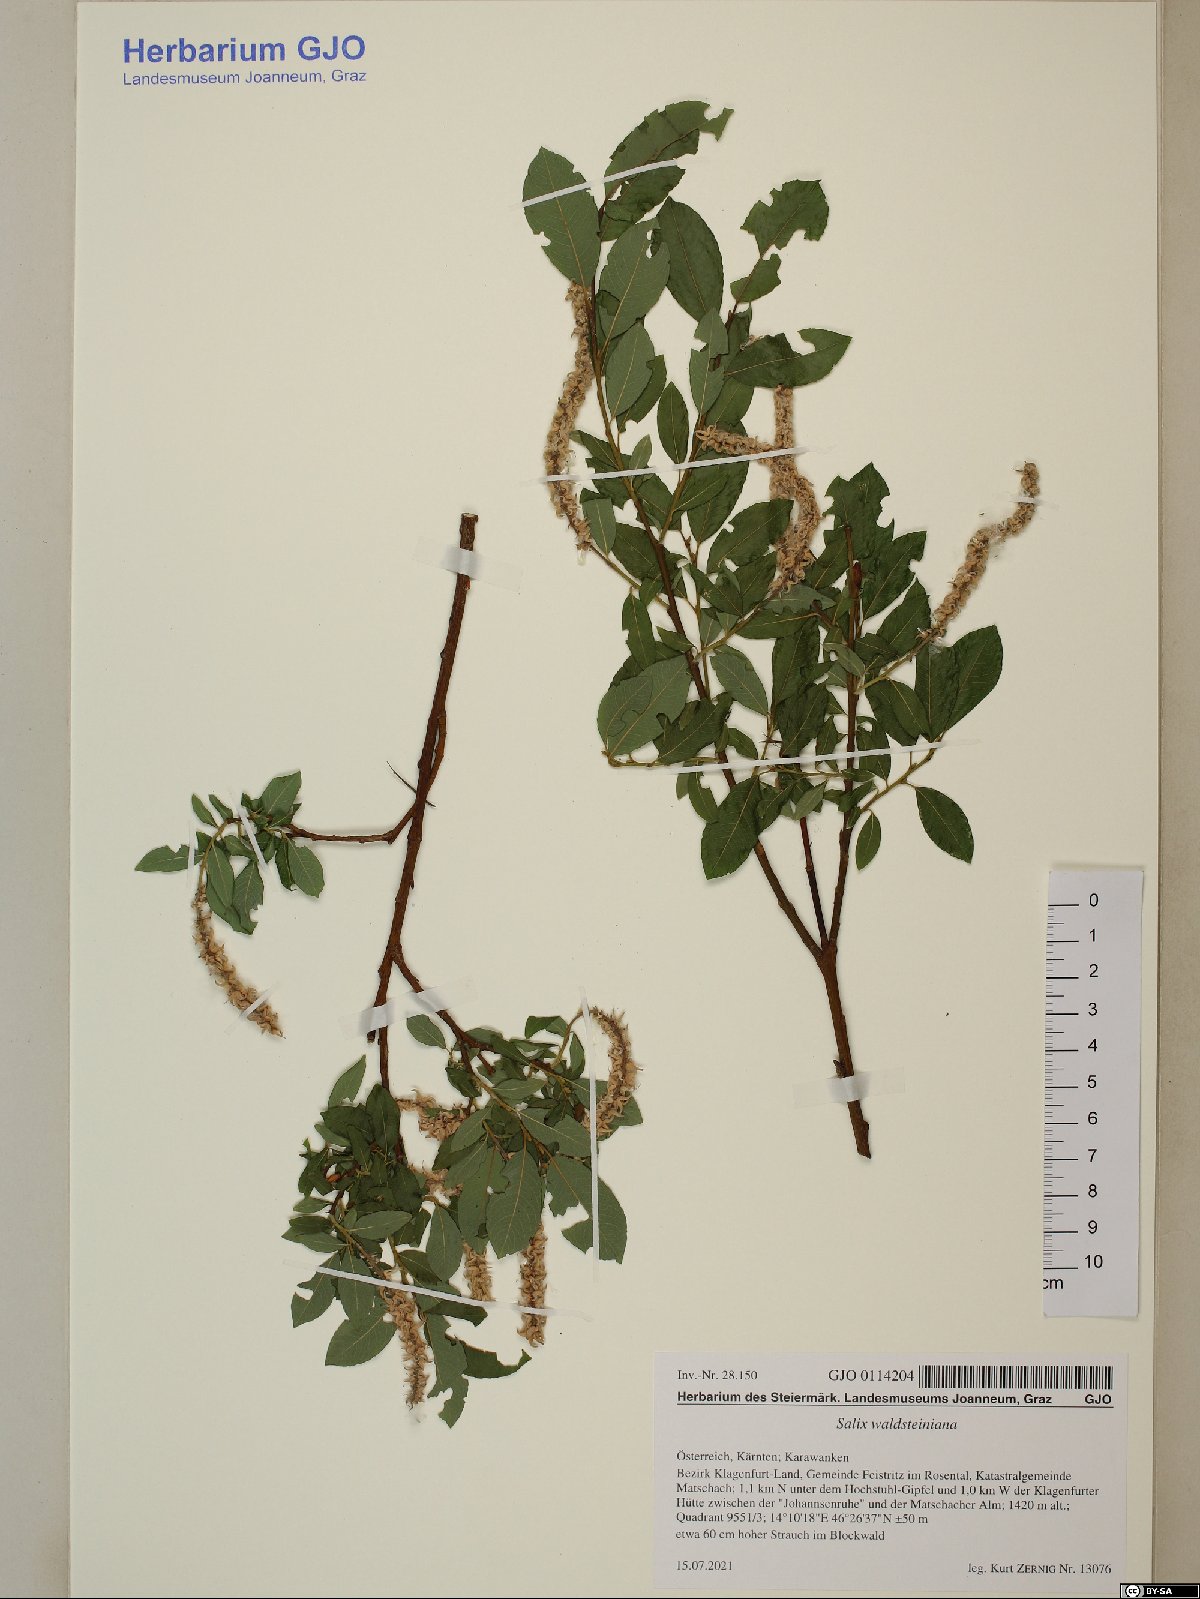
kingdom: Plantae
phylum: Tracheophyta
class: Magnoliopsida
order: Malpighiales
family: Salicaceae
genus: Salix
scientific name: Salix waldsteiniana
